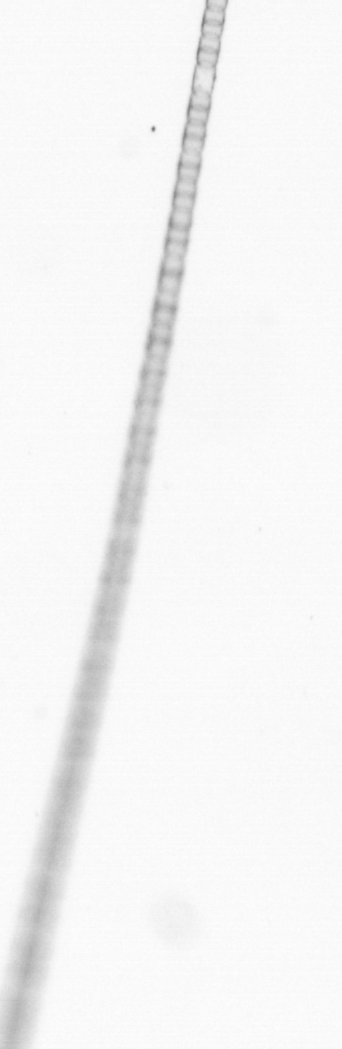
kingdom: Chromista
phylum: Ochrophyta
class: Bacillariophyceae
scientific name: Bacillariophyceae
